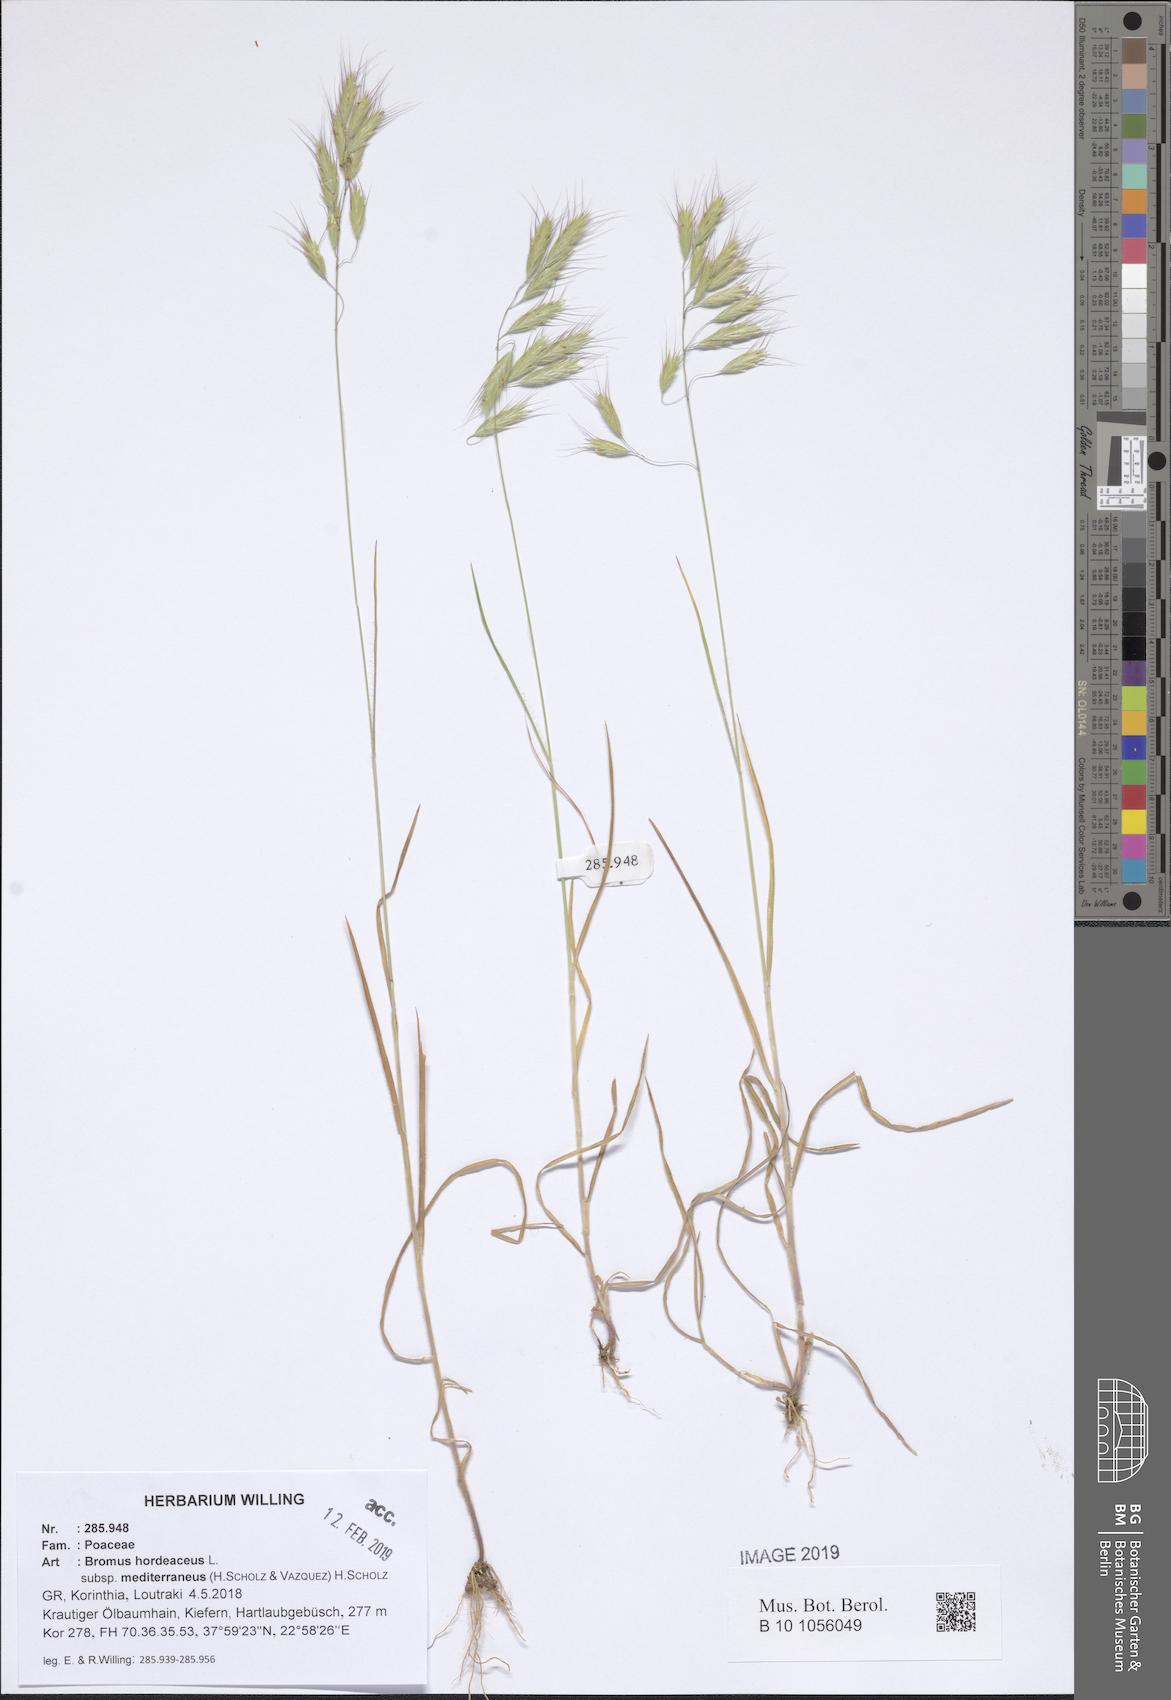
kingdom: Plantae
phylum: Tracheophyta
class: Liliopsida
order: Poales
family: Poaceae
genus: Bromus
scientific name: Bromus hordeaceus
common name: Soft brome
